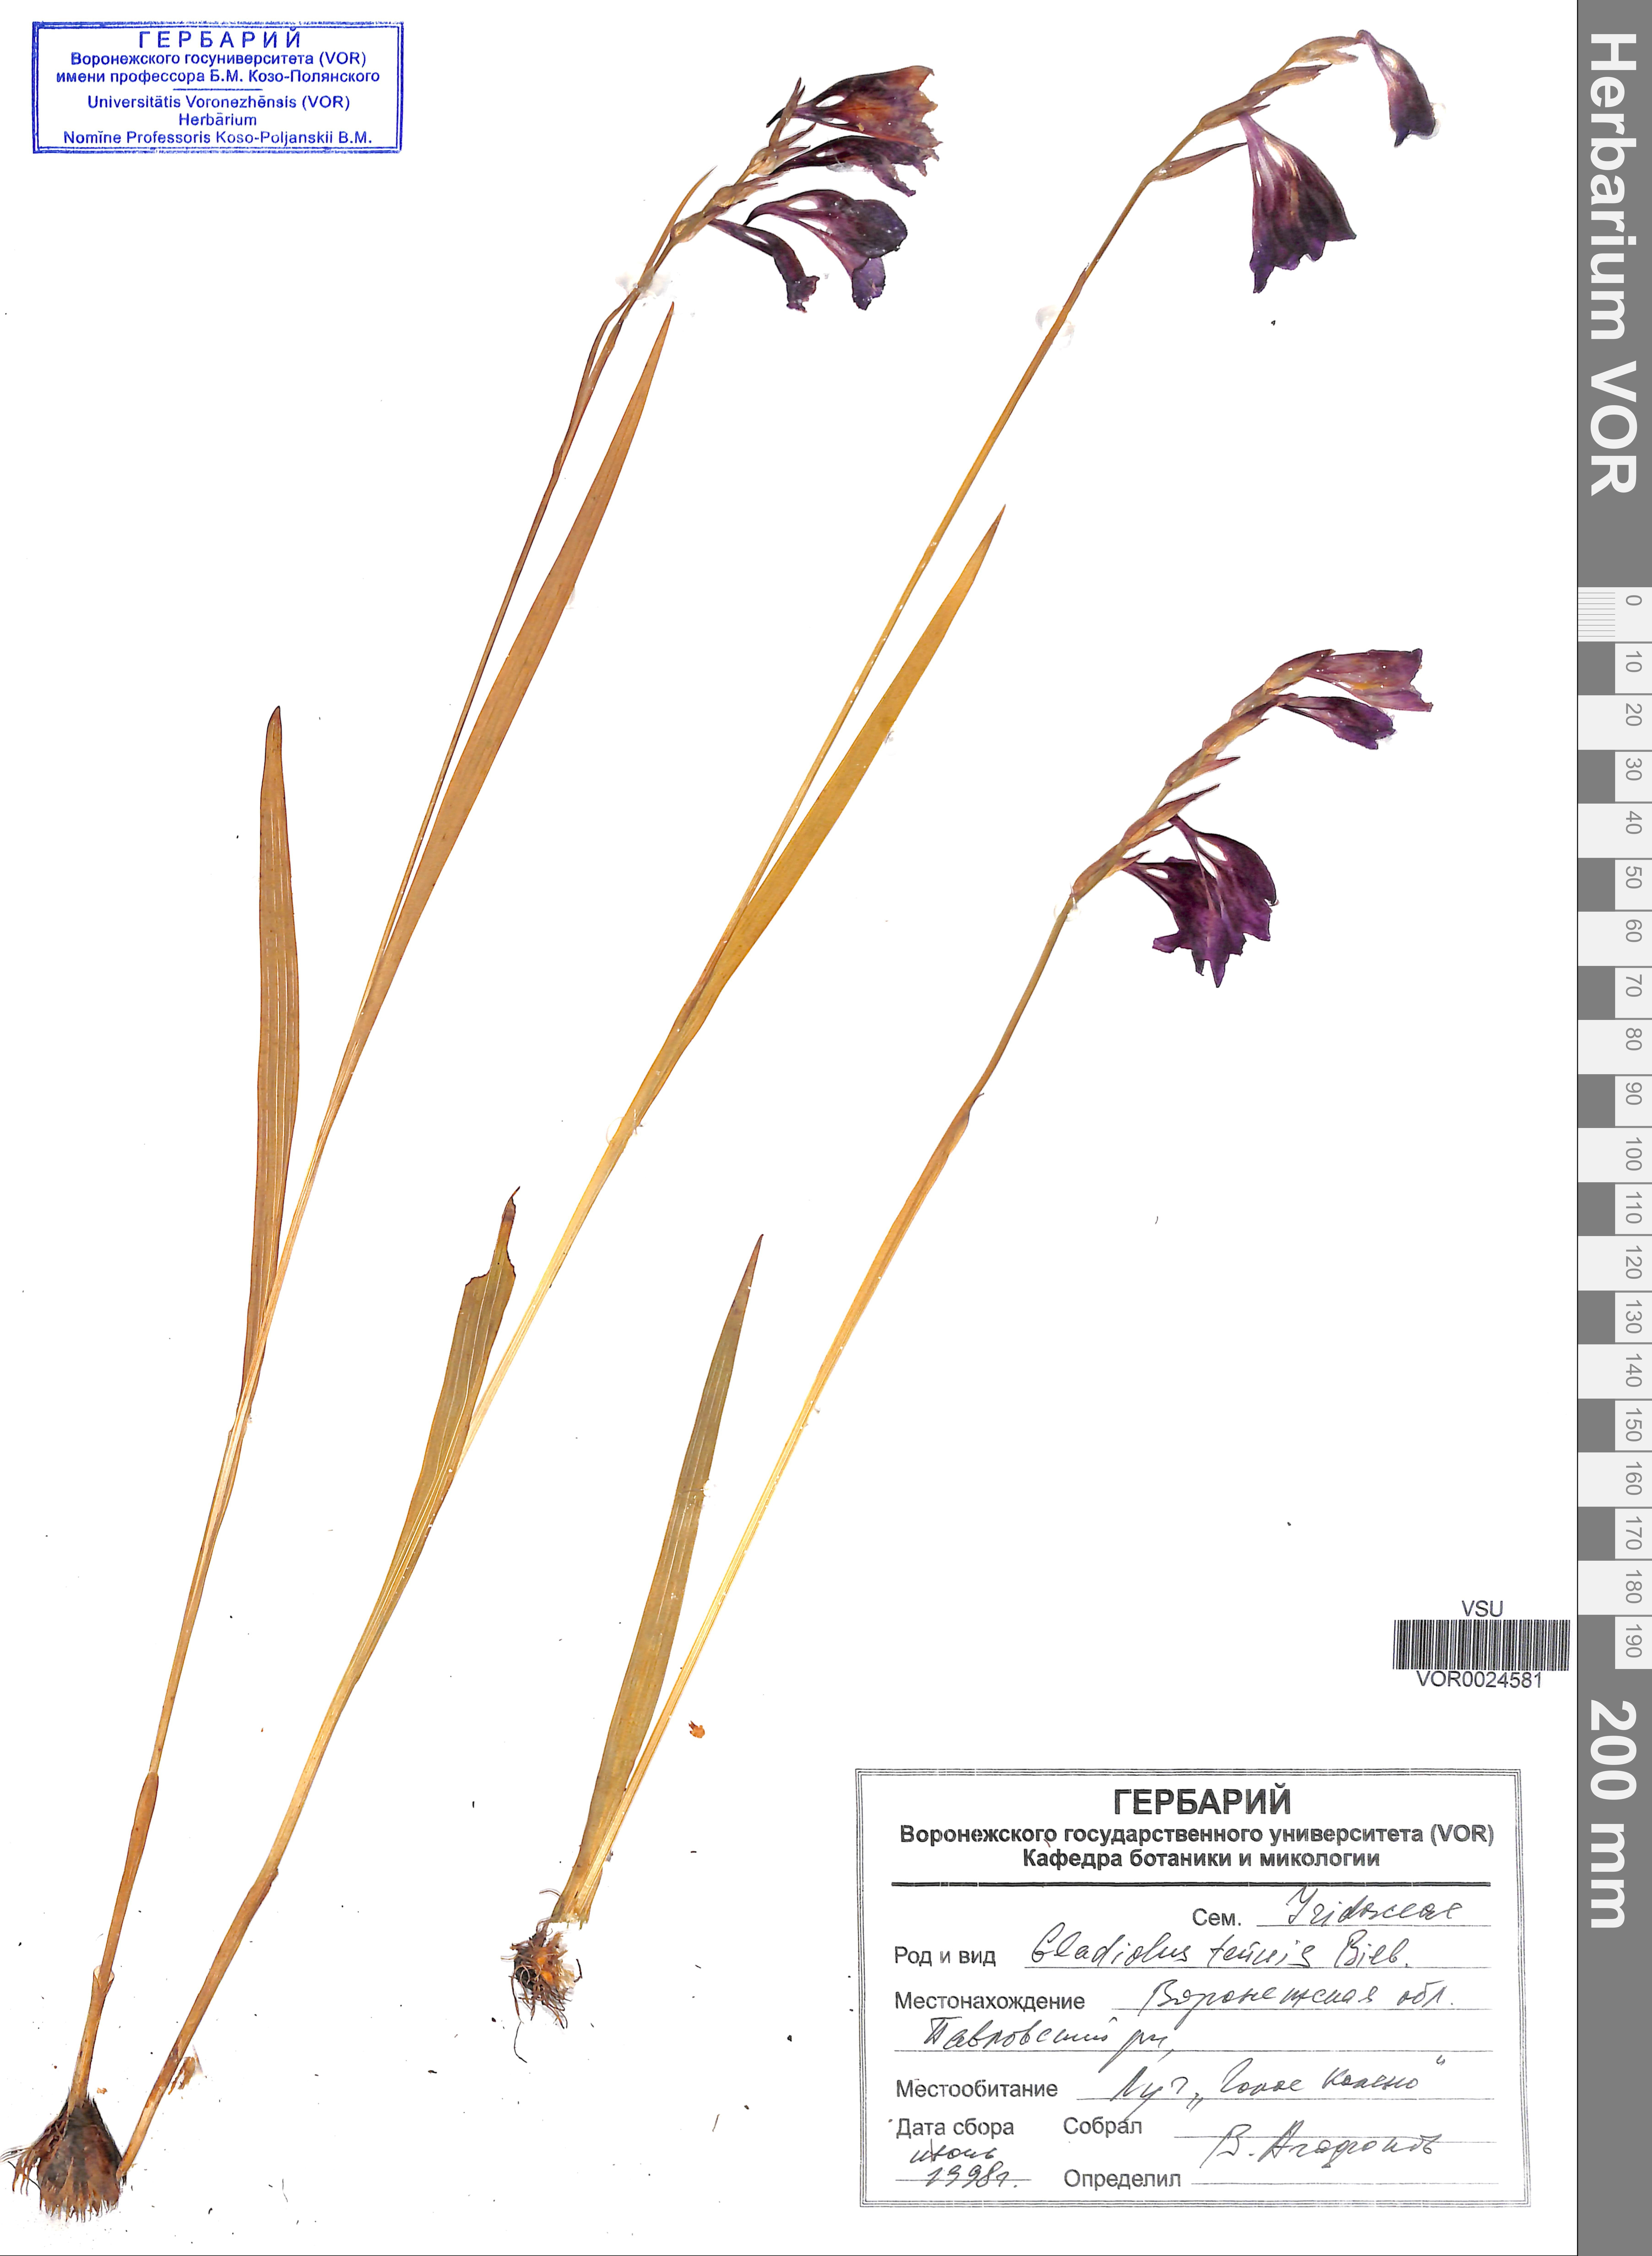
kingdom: Plantae
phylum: Tracheophyta
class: Liliopsida
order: Asparagales
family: Iridaceae
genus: Gladiolus
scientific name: Gladiolus tenuis
